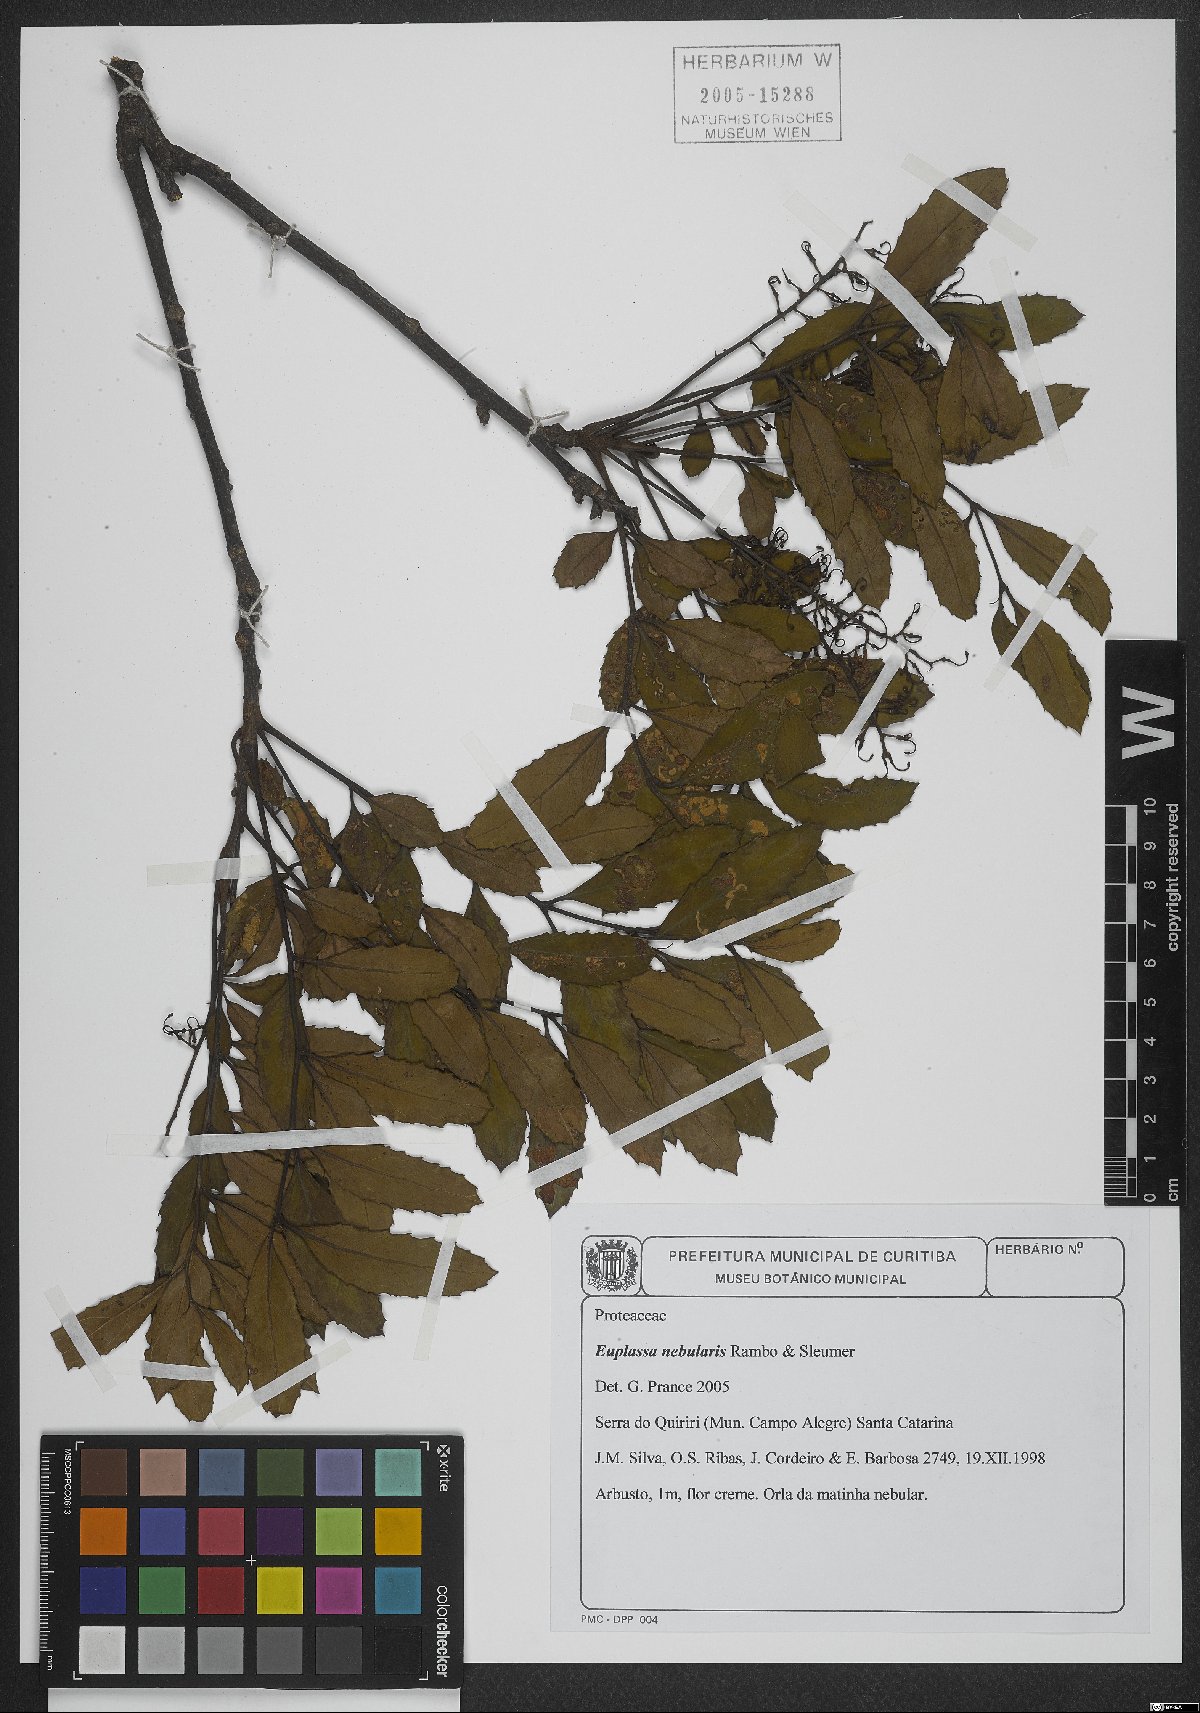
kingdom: Plantae
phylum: Tracheophyta
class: Magnoliopsida
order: Proteales
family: Proteaceae
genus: Euplassa
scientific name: Euplassa nebularis
